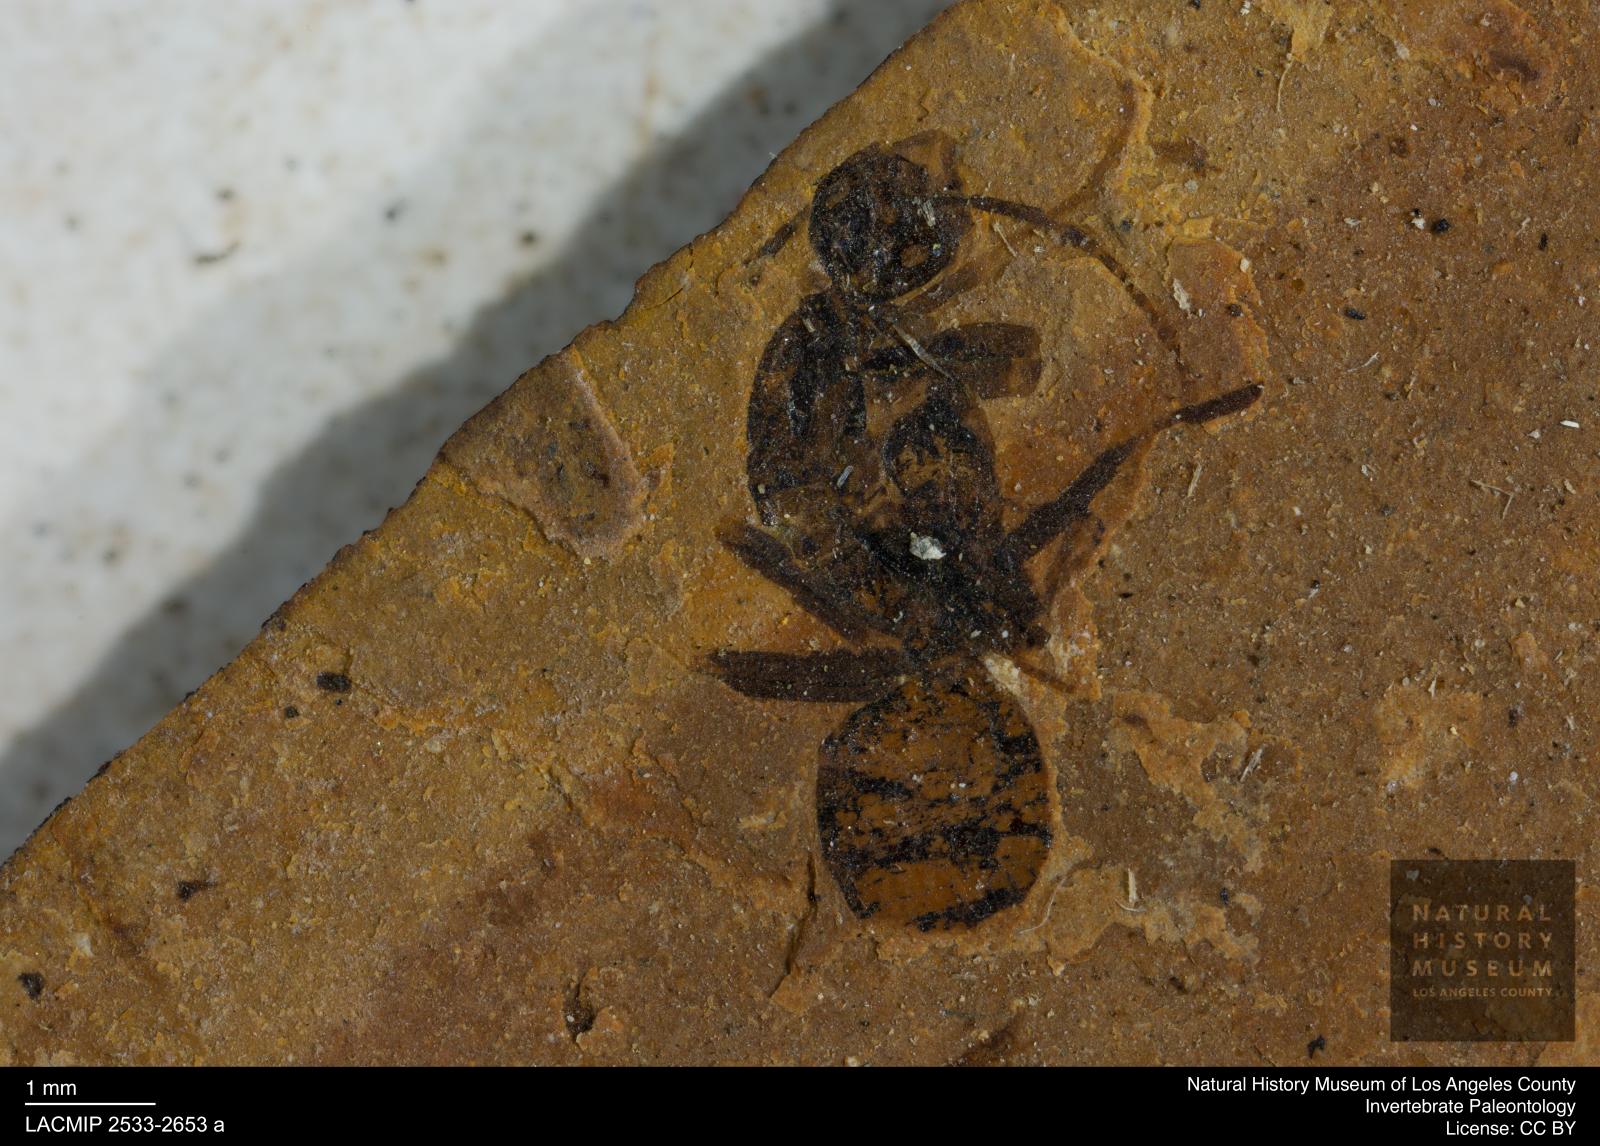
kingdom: Animalia
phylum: Arthropoda
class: Insecta
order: Hymenoptera
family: Formicidae
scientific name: Formicidae
